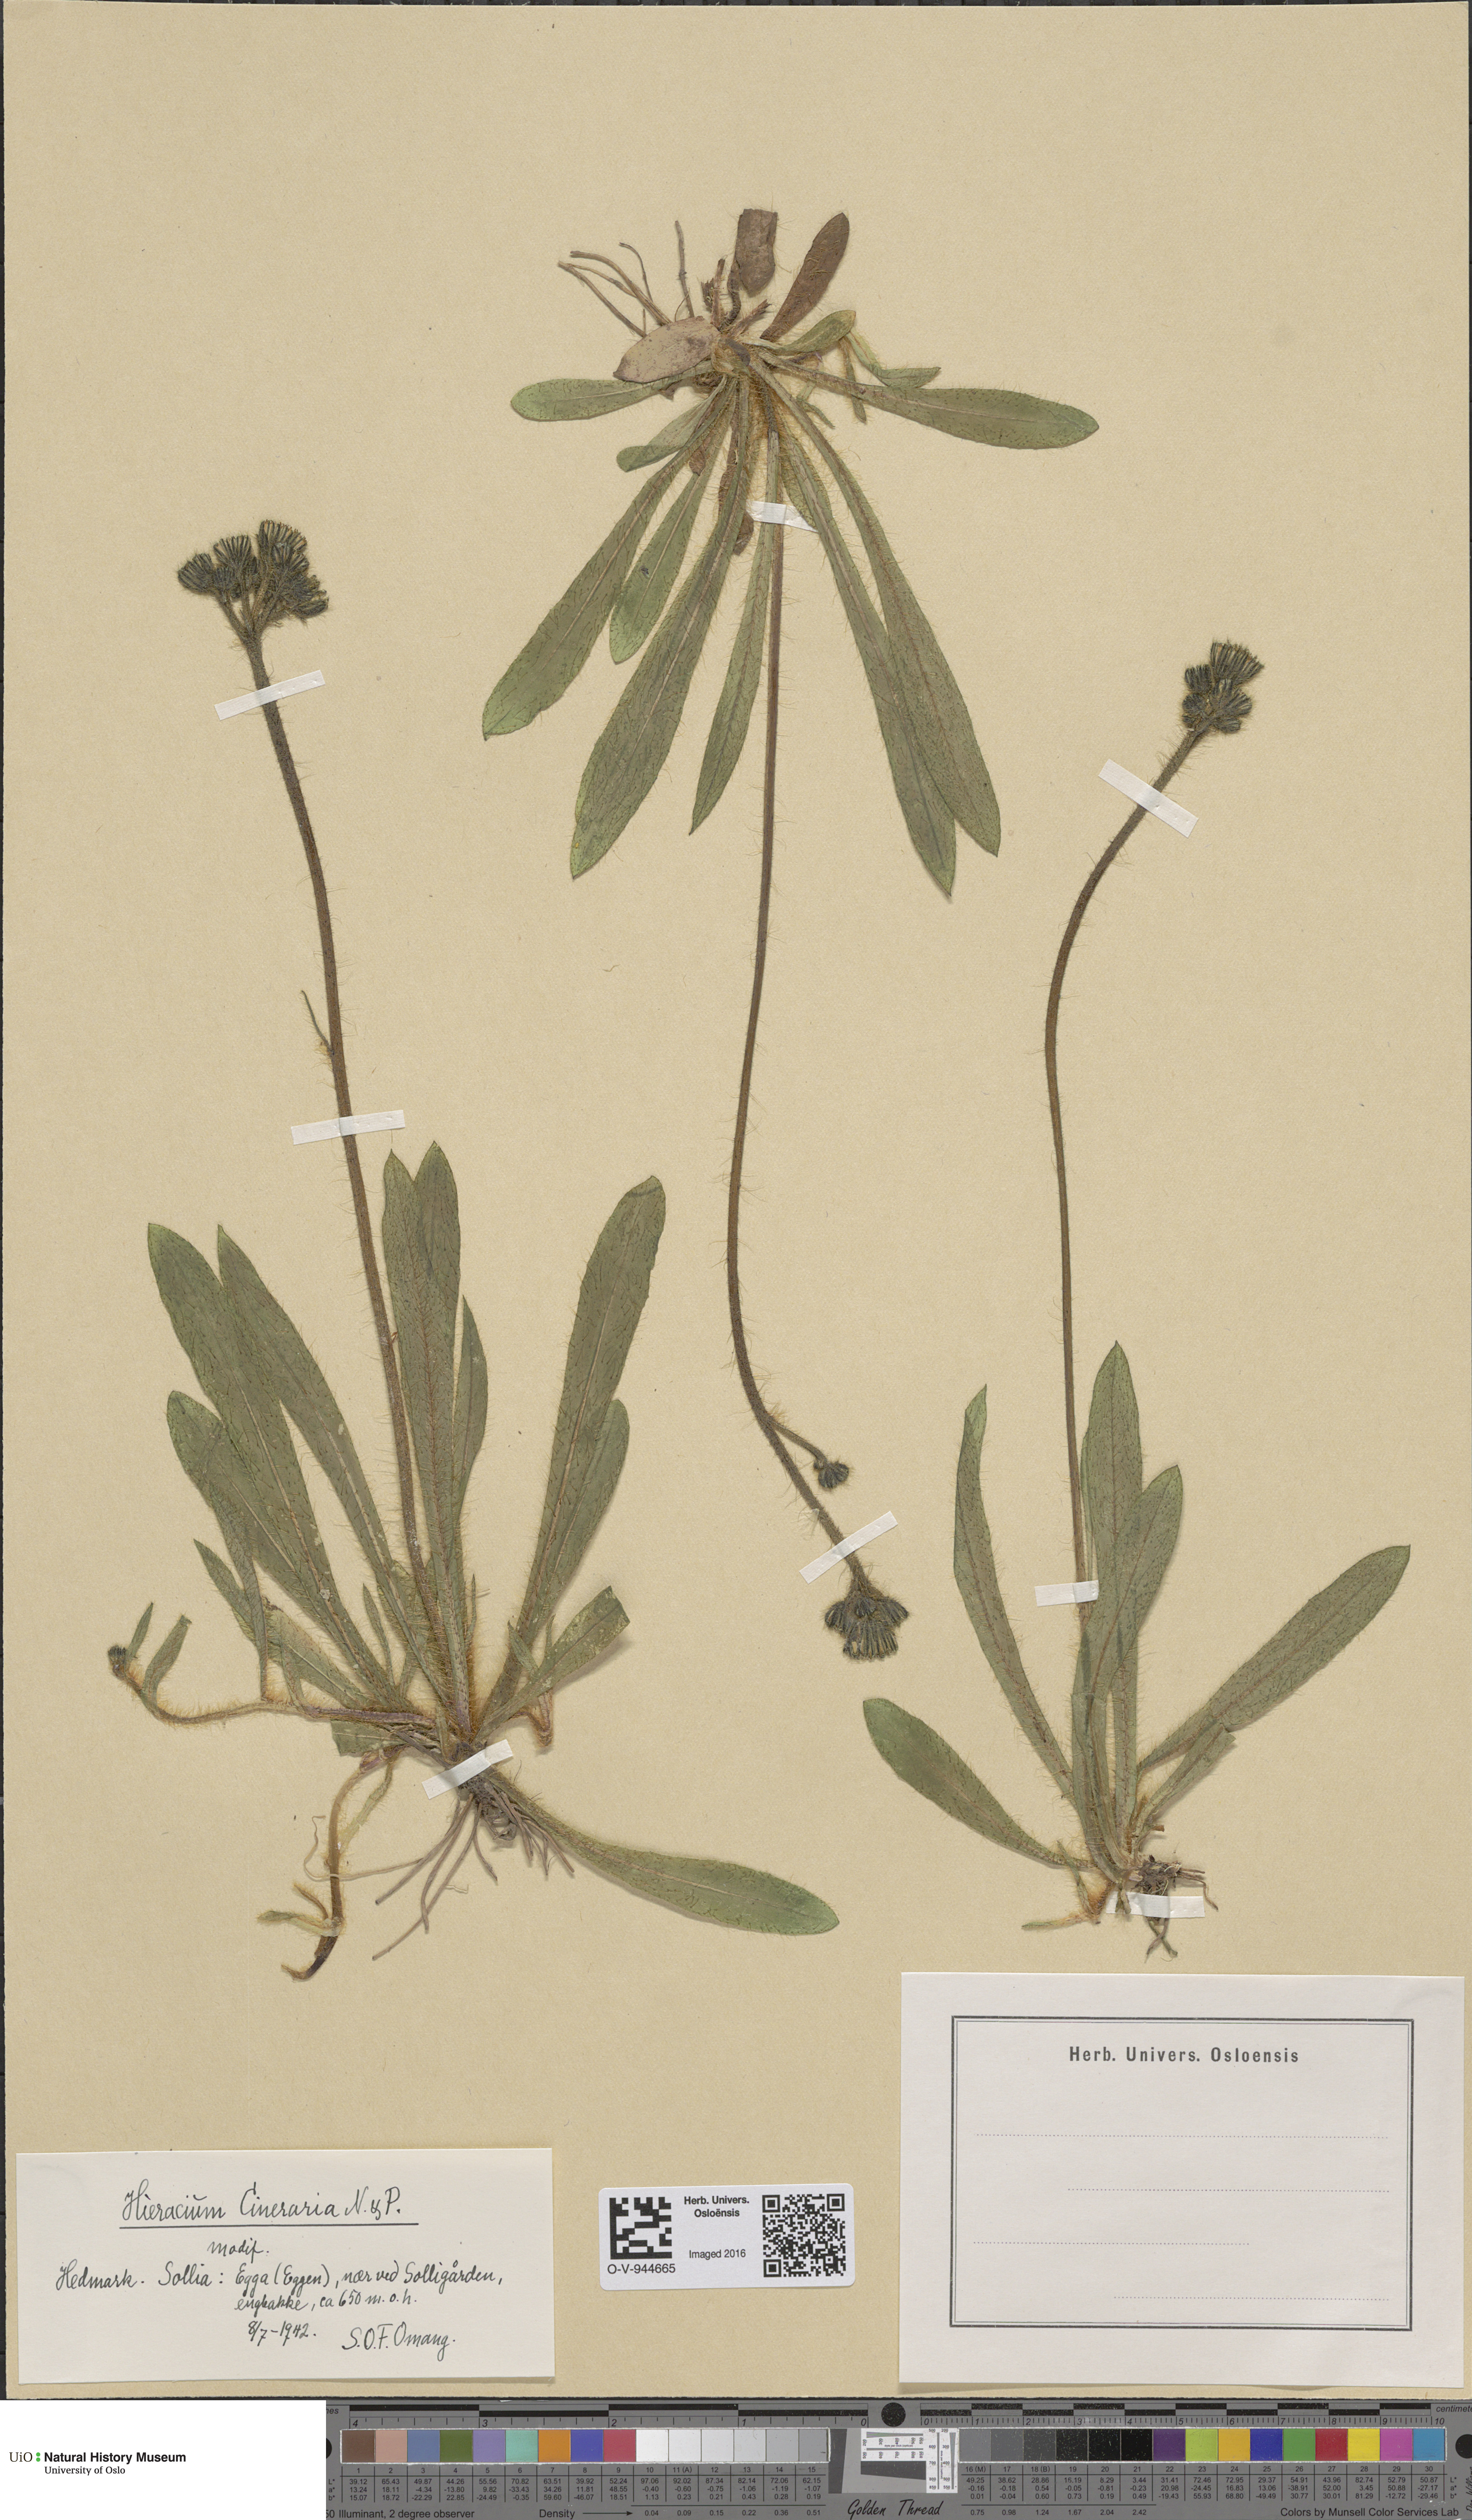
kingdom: Plantae
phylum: Tracheophyta
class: Magnoliopsida
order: Asterales
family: Asteraceae
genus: Pilosella
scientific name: Pilosella moechiadia
